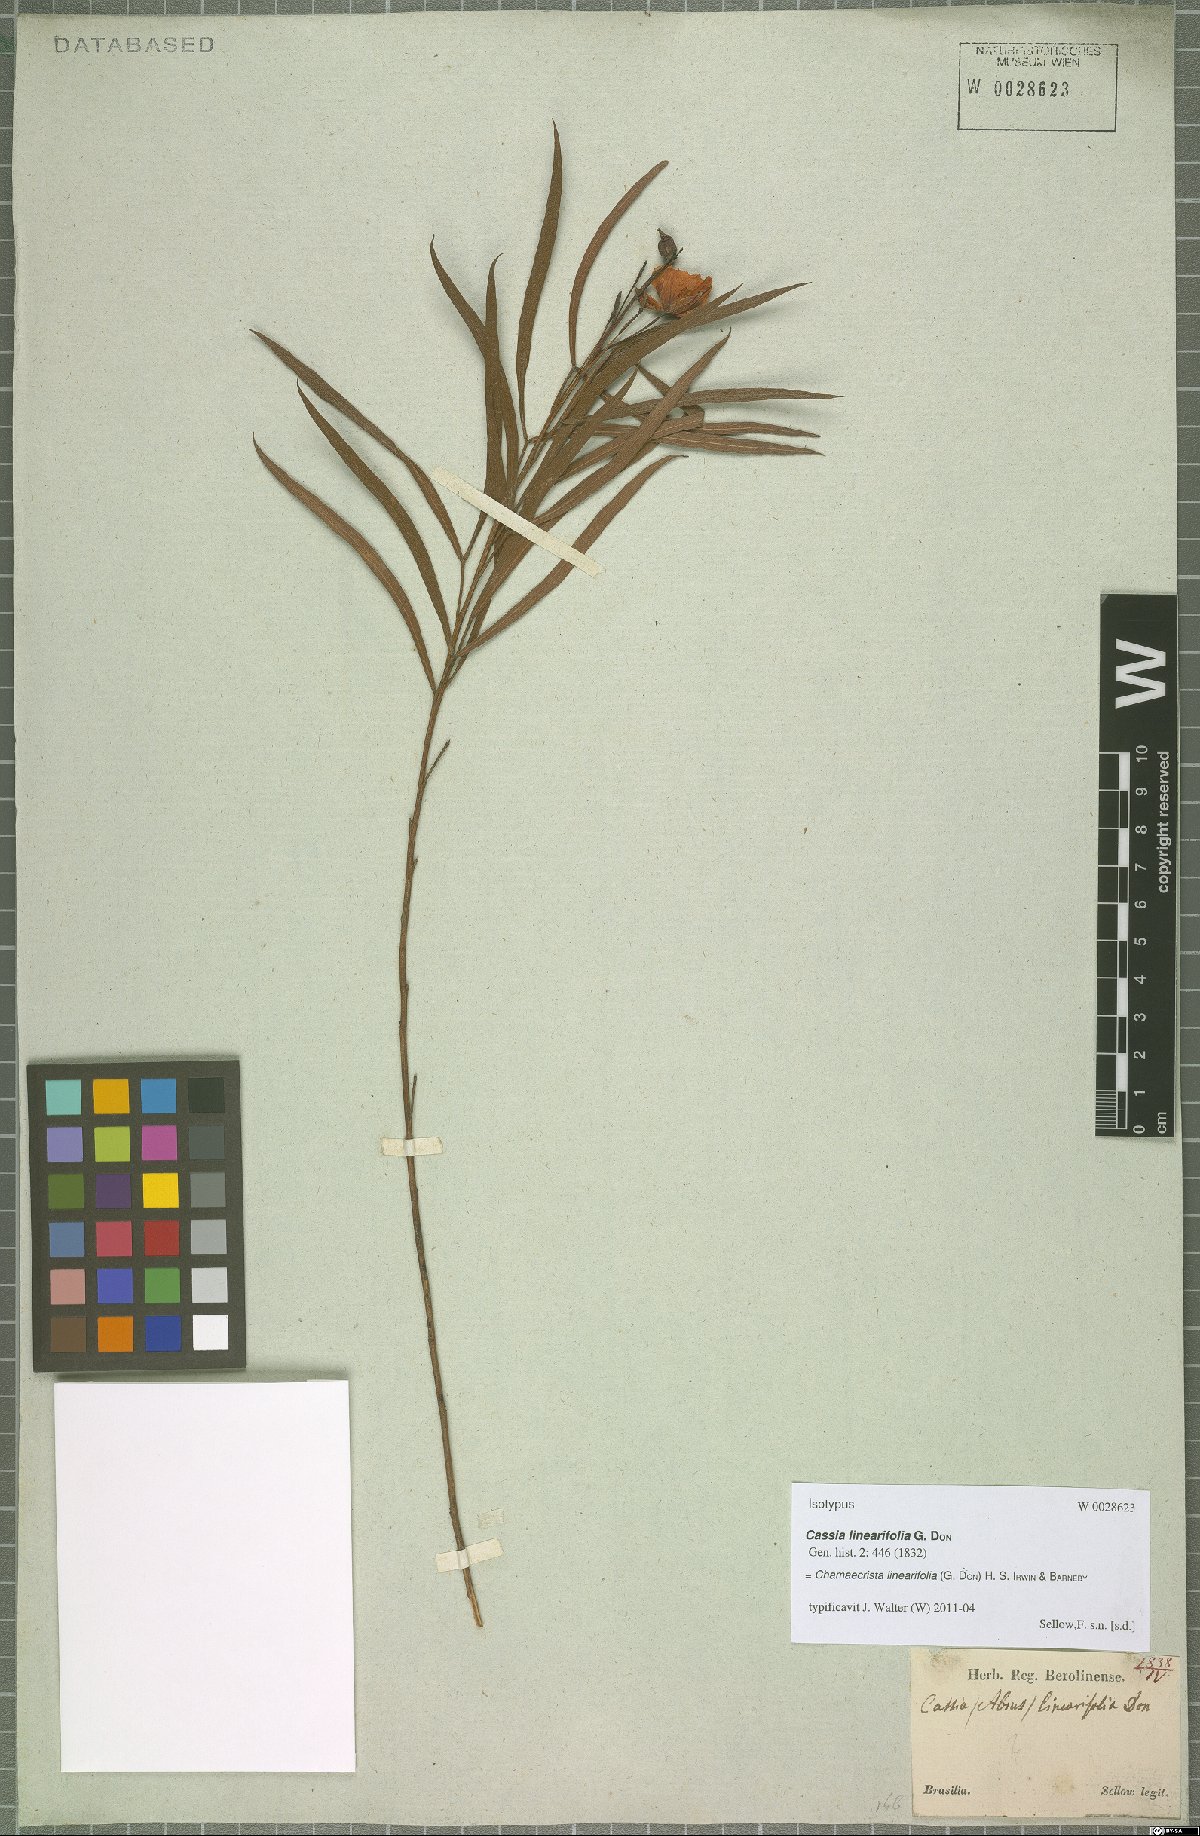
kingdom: Plantae
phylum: Tracheophyta
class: Magnoliopsida
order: Fabales
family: Fabaceae
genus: Chamaecrista
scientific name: Chamaecrista linearifolia
